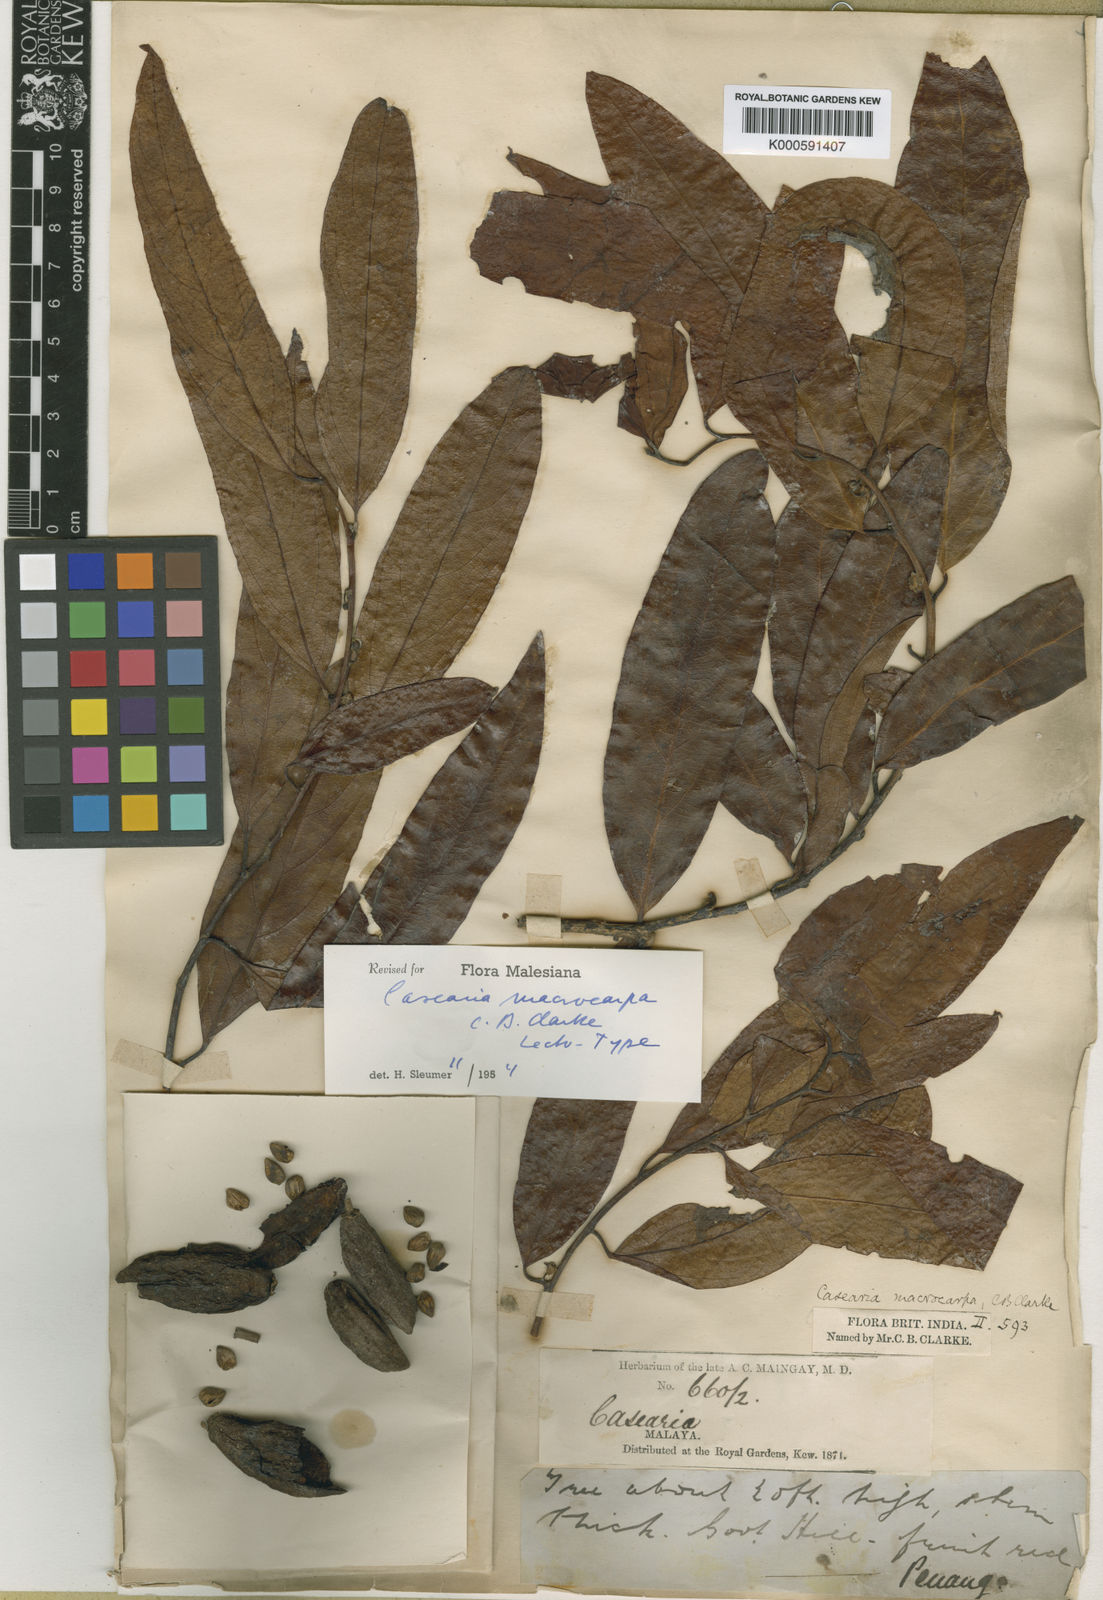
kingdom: Plantae
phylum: Tracheophyta
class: Magnoliopsida
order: Malpighiales
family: Salicaceae
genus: Casearia
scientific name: Casearia macrocarpa
